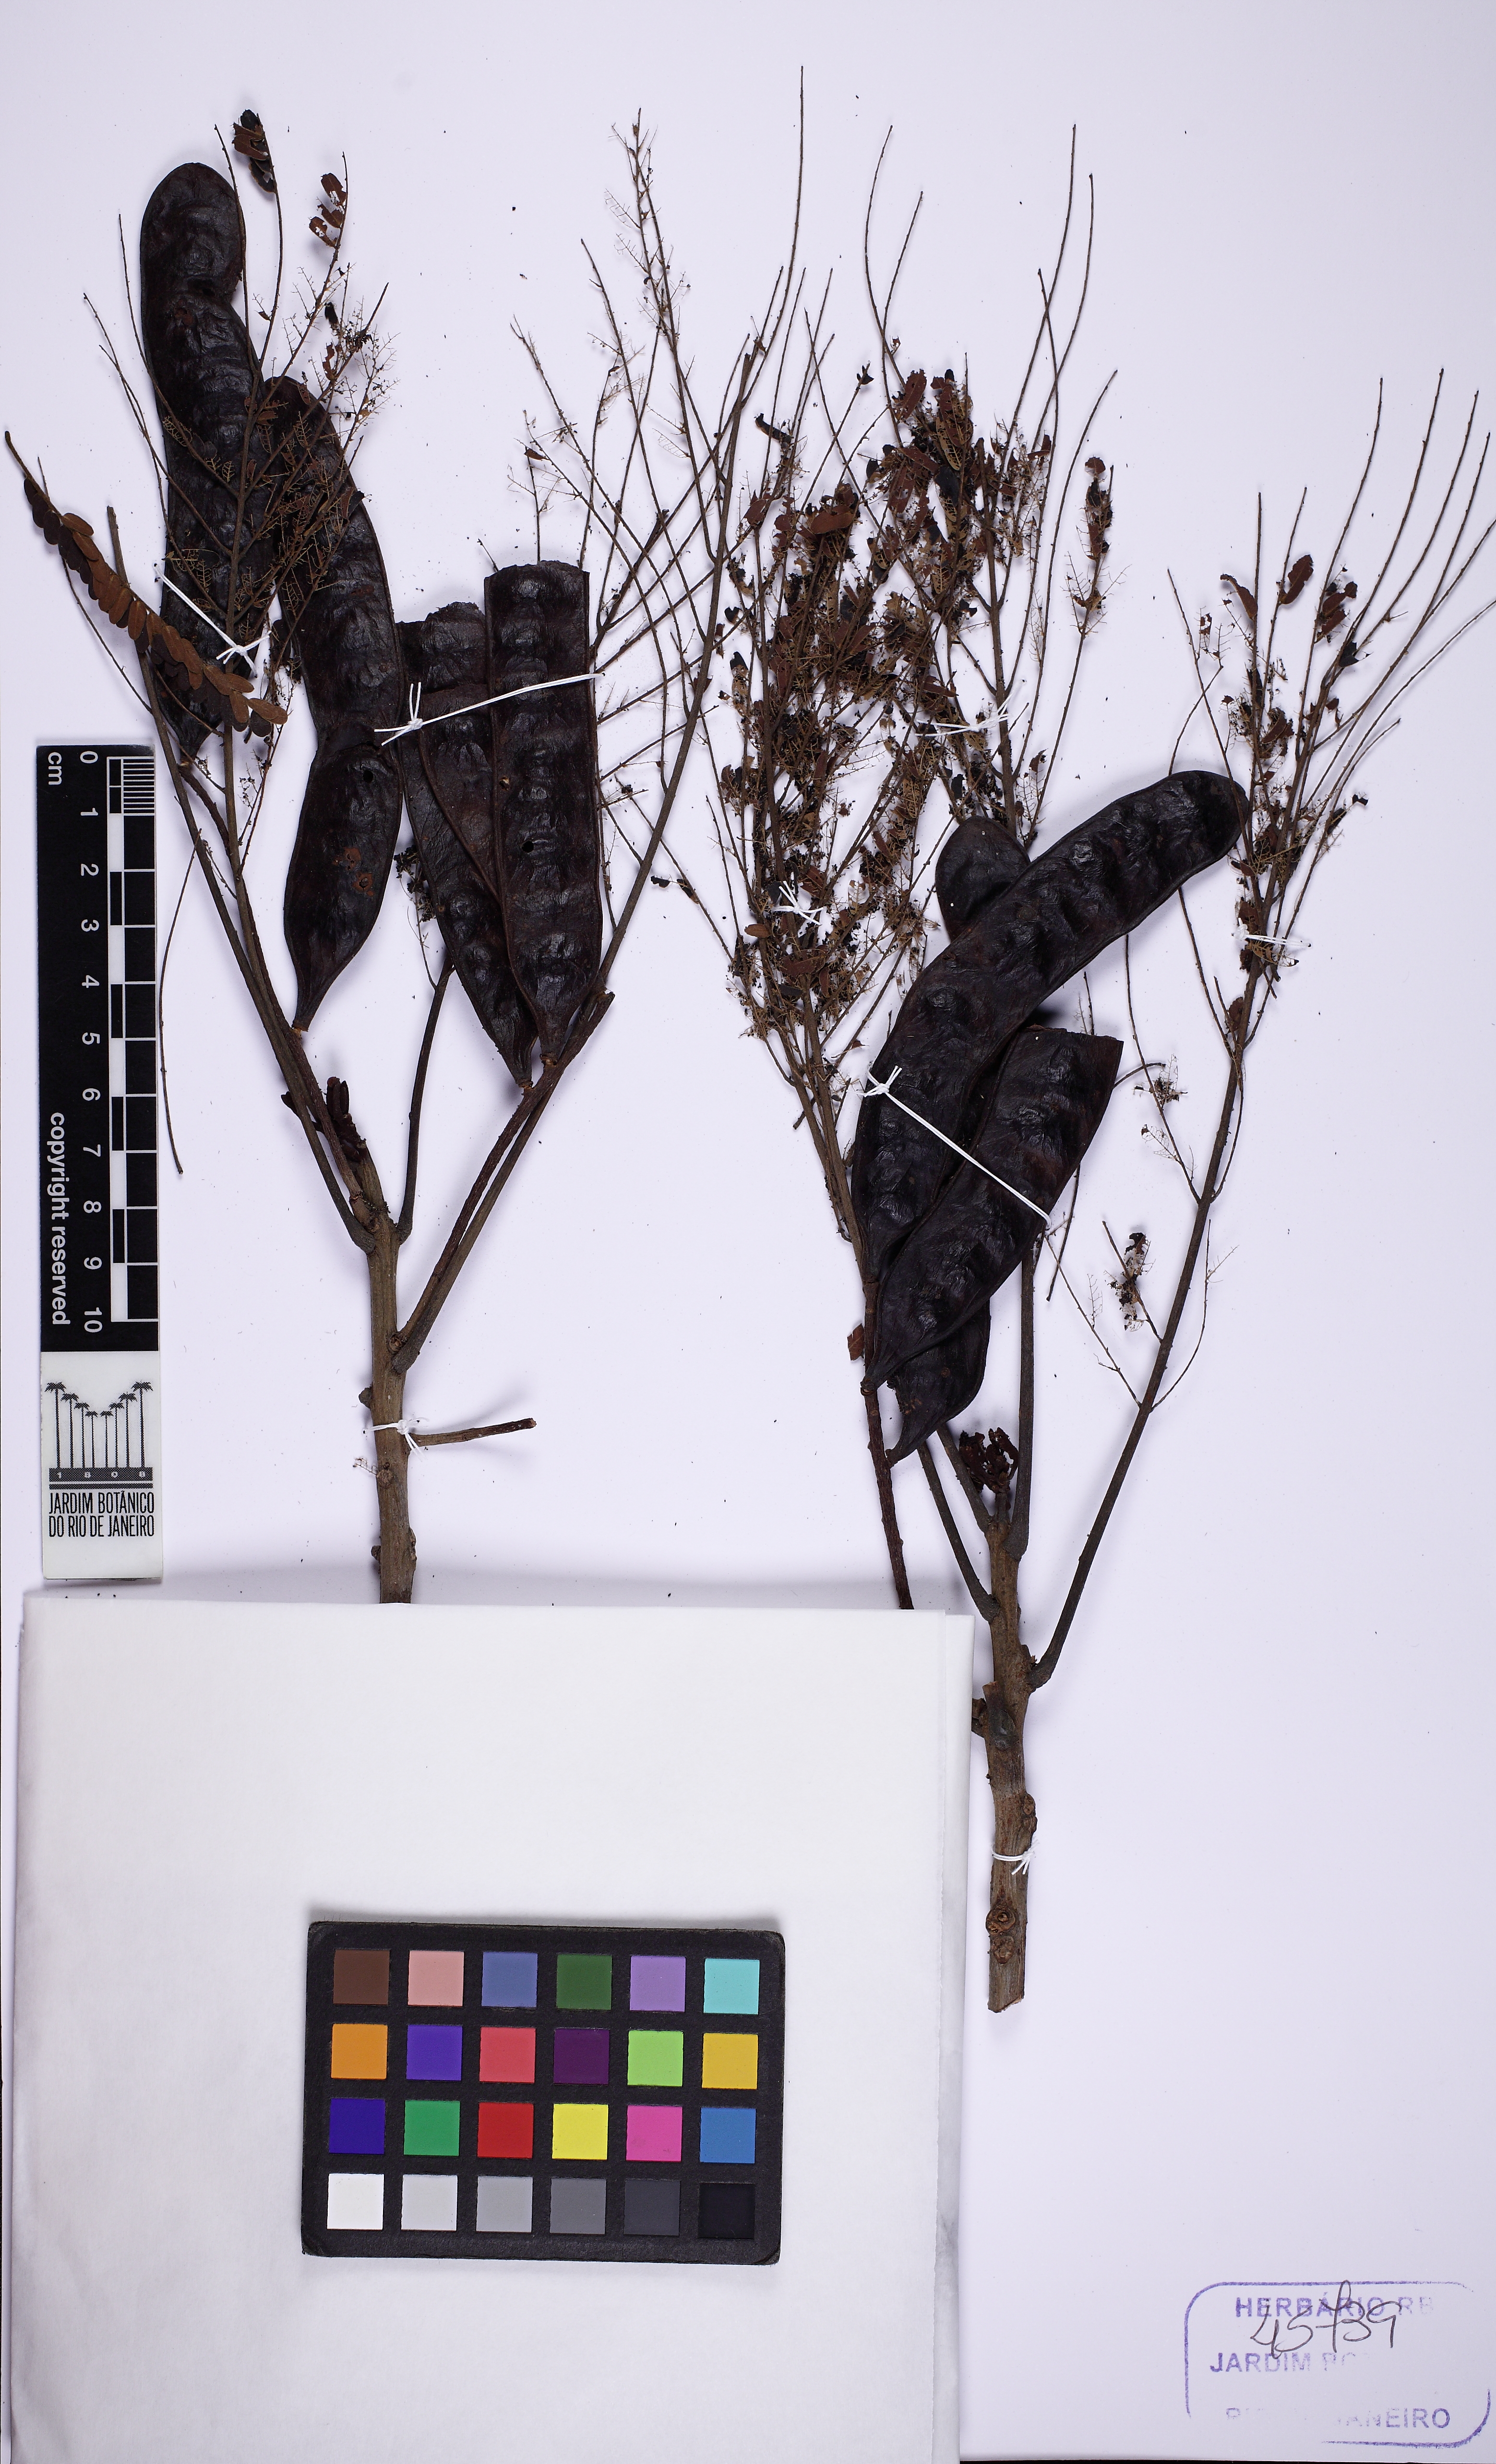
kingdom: Plantae
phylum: Tracheophyta
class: Magnoliopsida
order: Fabales
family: Fabaceae
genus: Stryphnodendron
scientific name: Stryphnodendron polyphyllum
